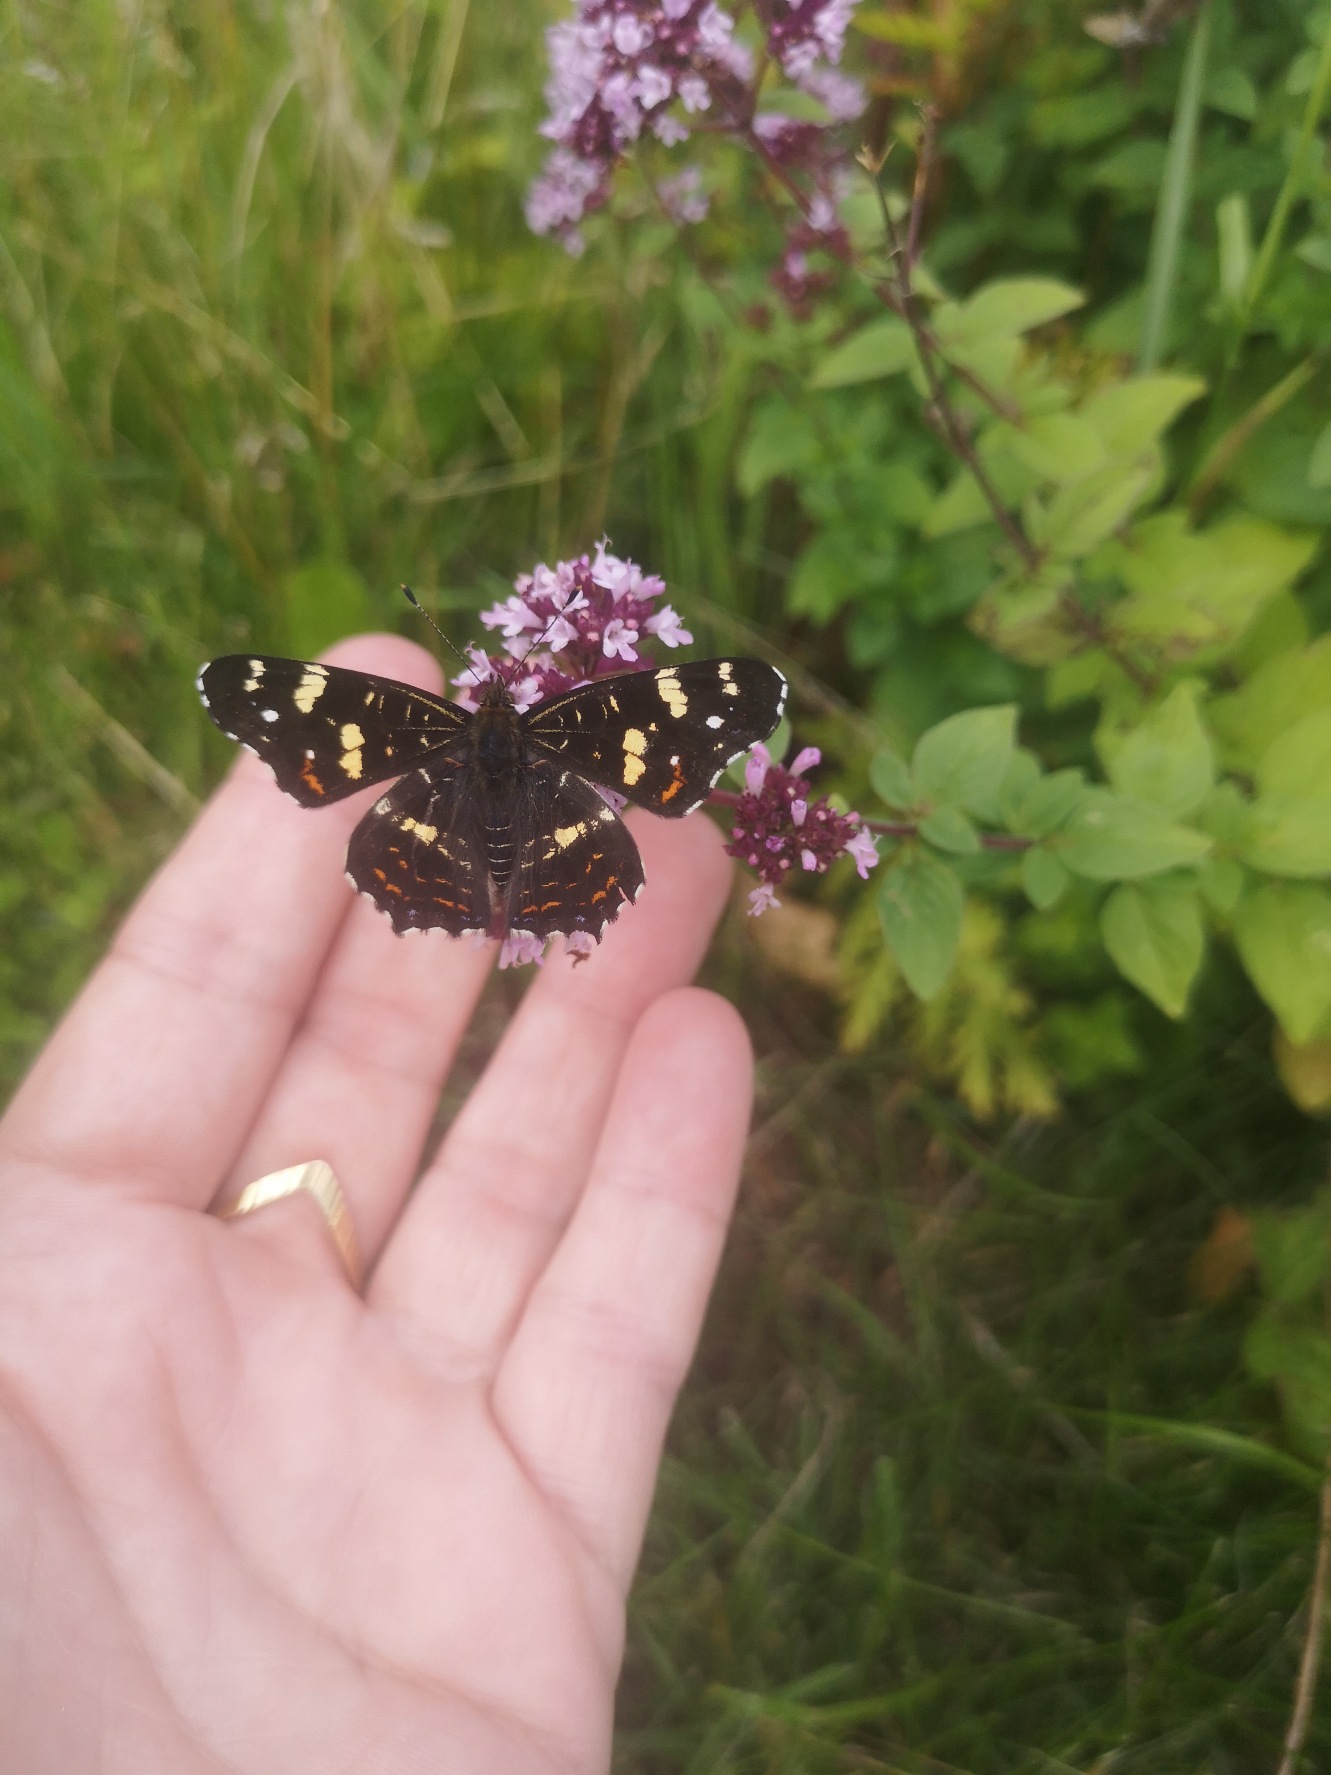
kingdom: Animalia
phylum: Arthropoda
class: Insecta
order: Lepidoptera
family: Nymphalidae
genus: Araschnia
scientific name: Araschnia levana
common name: Nældesommerfugl
